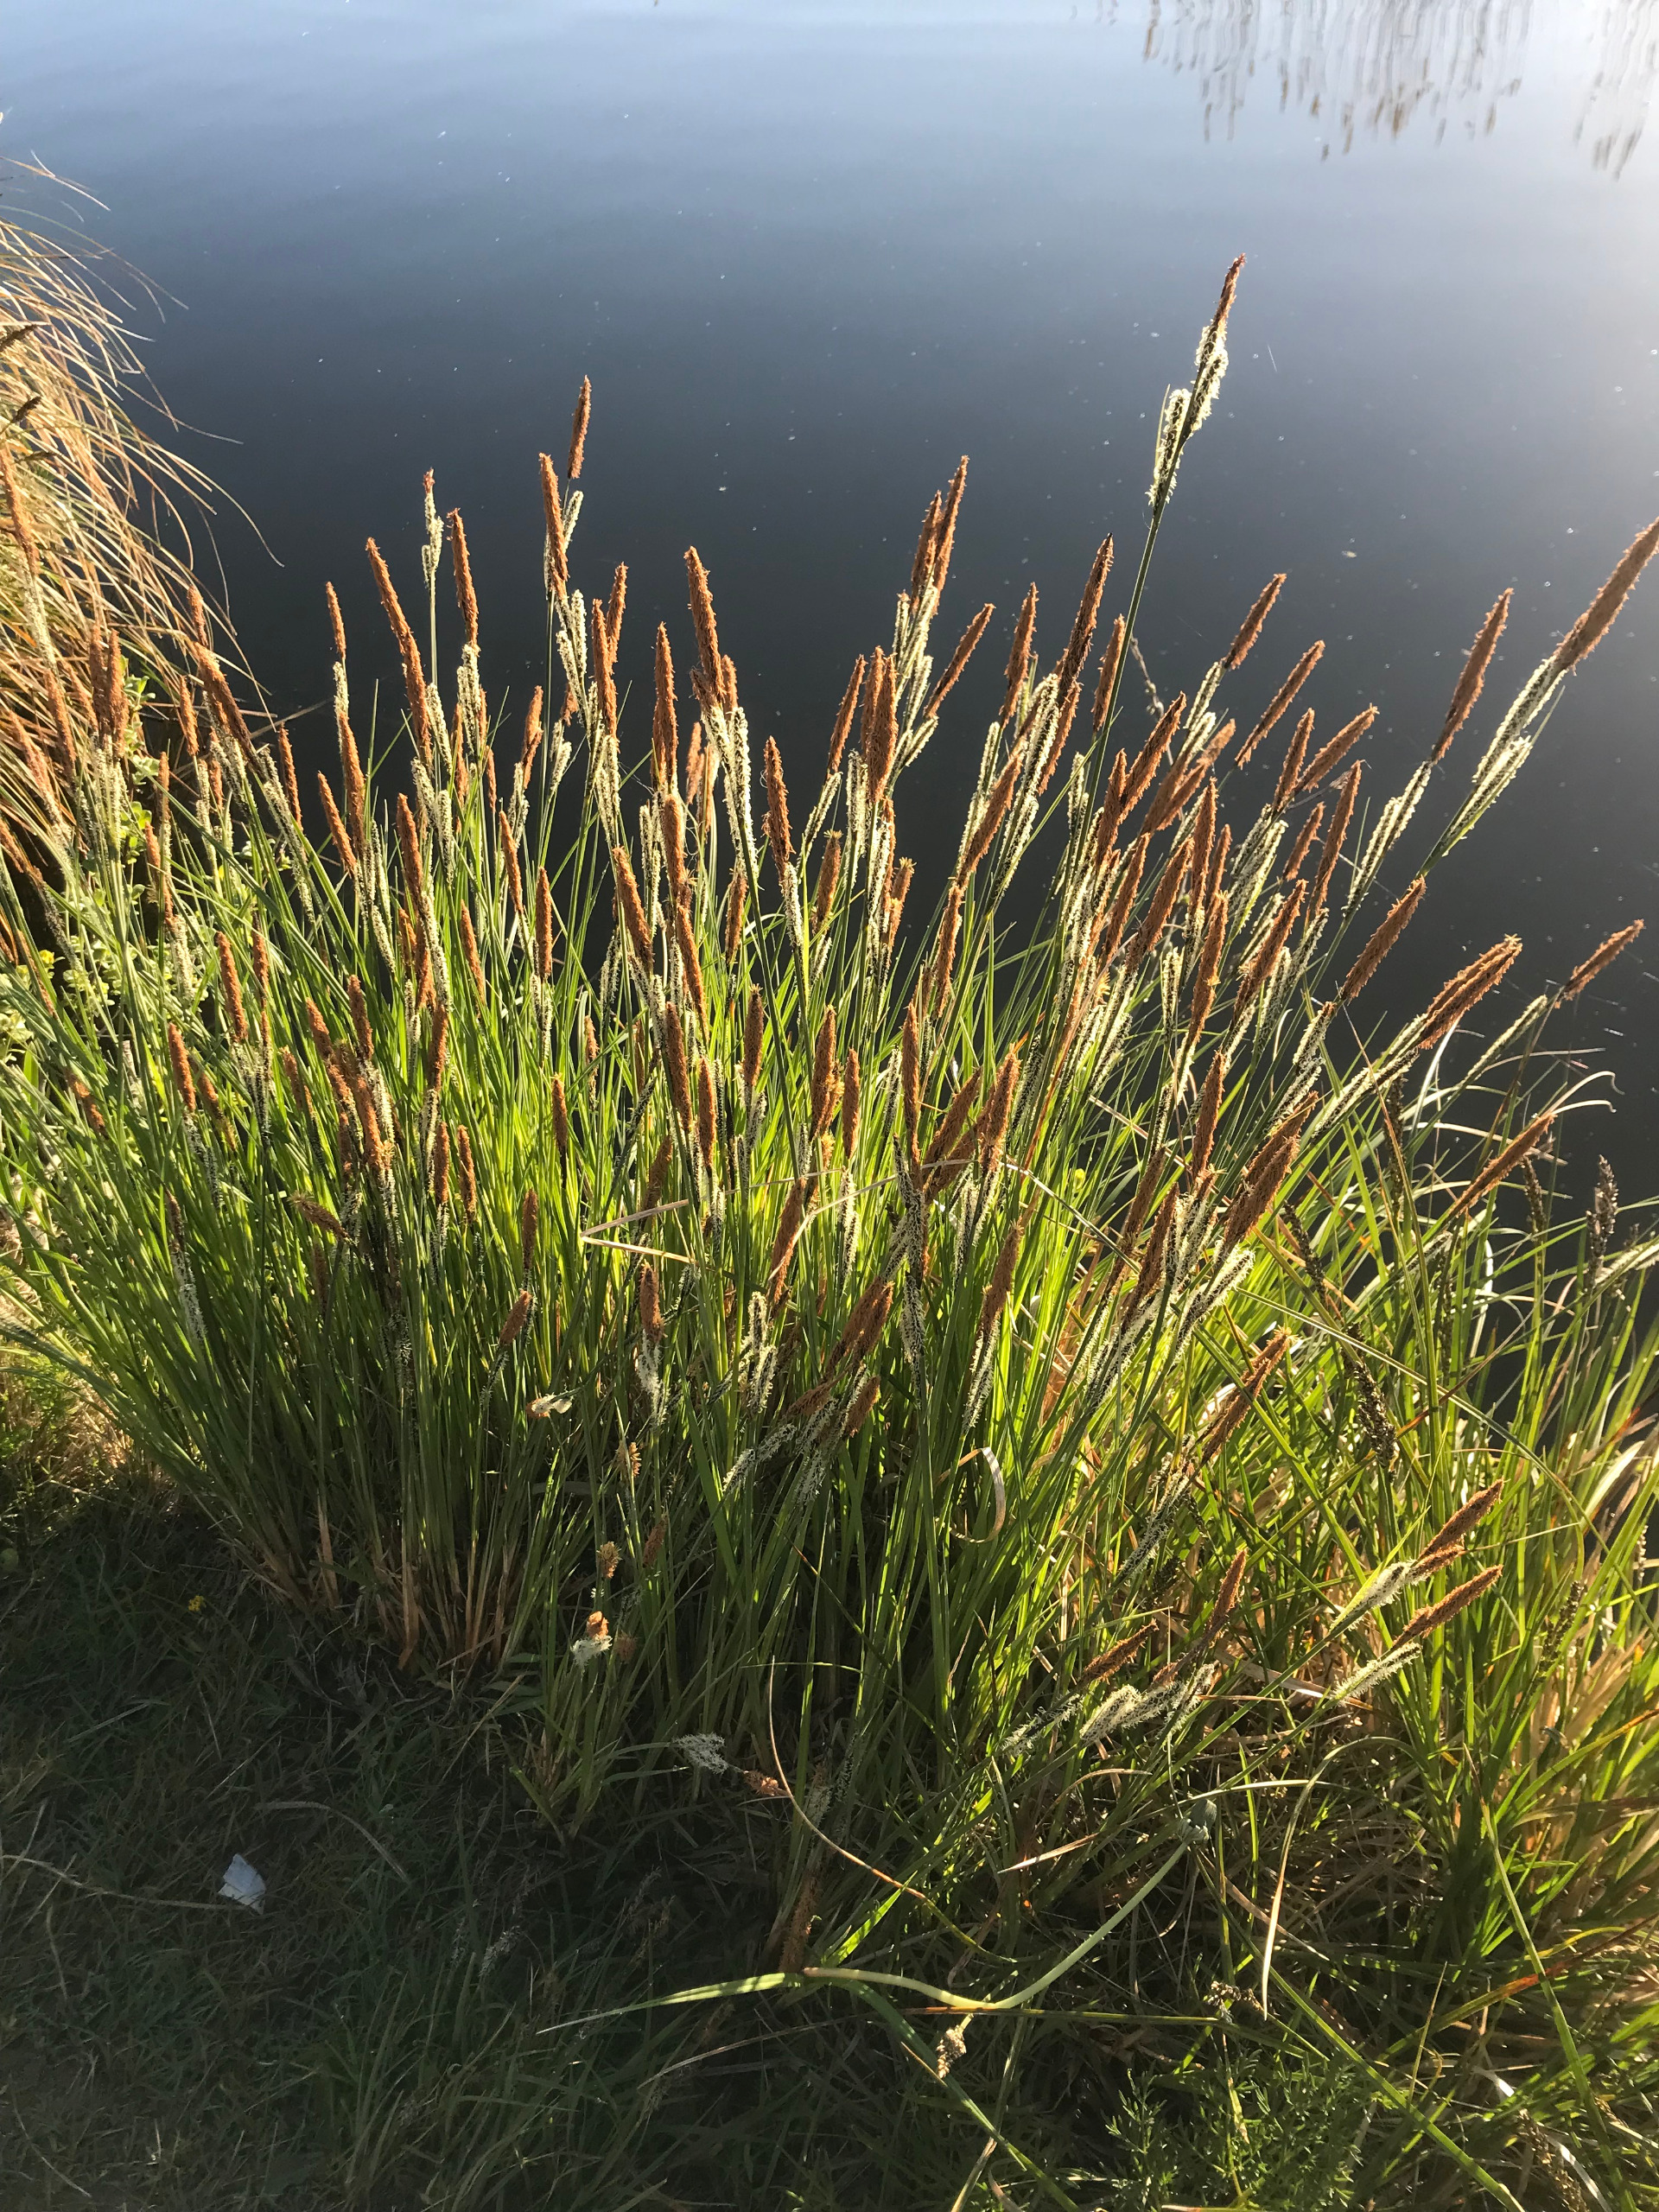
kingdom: Plantae
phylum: Tracheophyta
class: Liliopsida
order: Poales
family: Cyperaceae
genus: Carex
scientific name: Carex elata
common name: Stiv star
